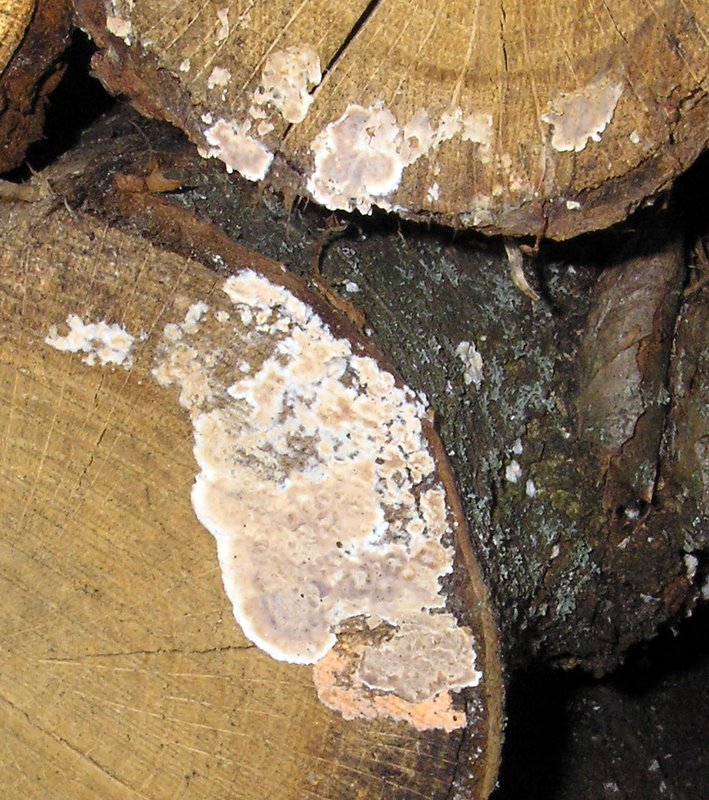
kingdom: Fungi
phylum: Basidiomycota
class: Agaricomycetes
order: Russulales
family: Stereaceae
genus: Stereum
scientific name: Stereum rugosum
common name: rynket lædersvamp
